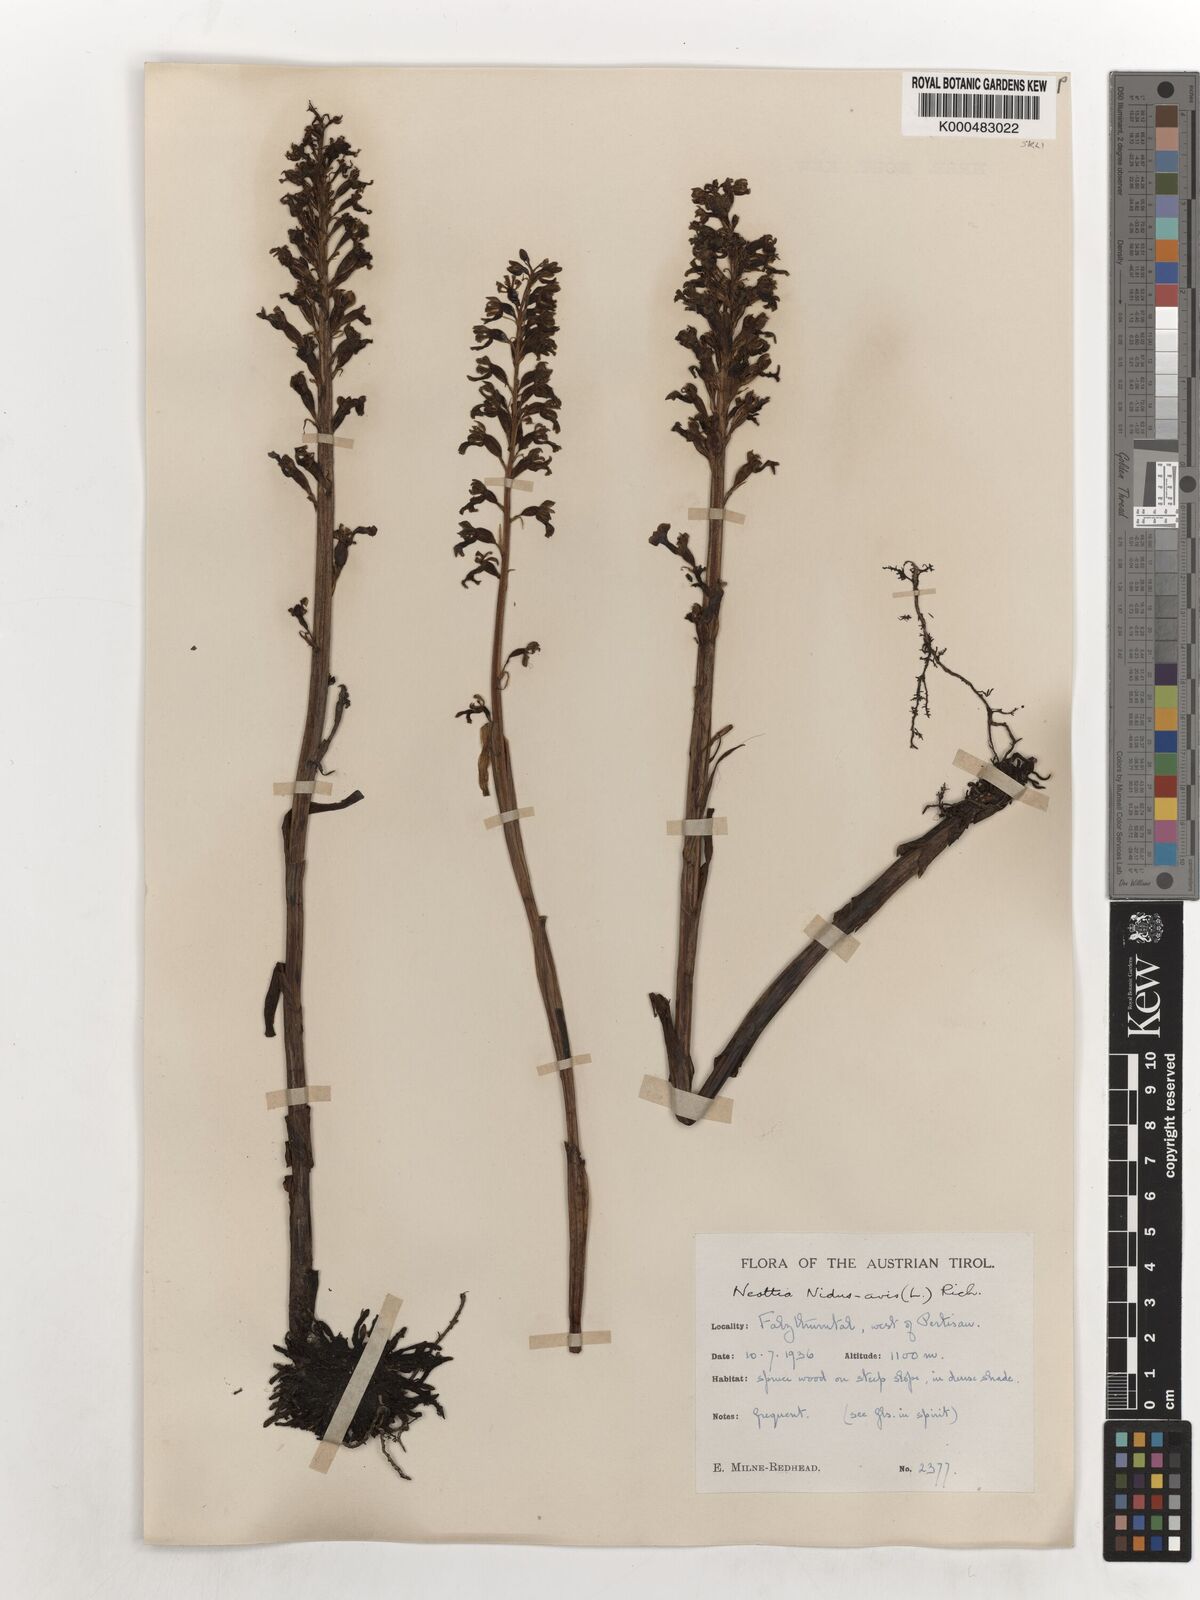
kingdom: Plantae
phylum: Tracheophyta
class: Liliopsida
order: Asparagales
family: Orchidaceae
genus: Neottia
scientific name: Neottia nidus-avis
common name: Bird's-nest orchid
